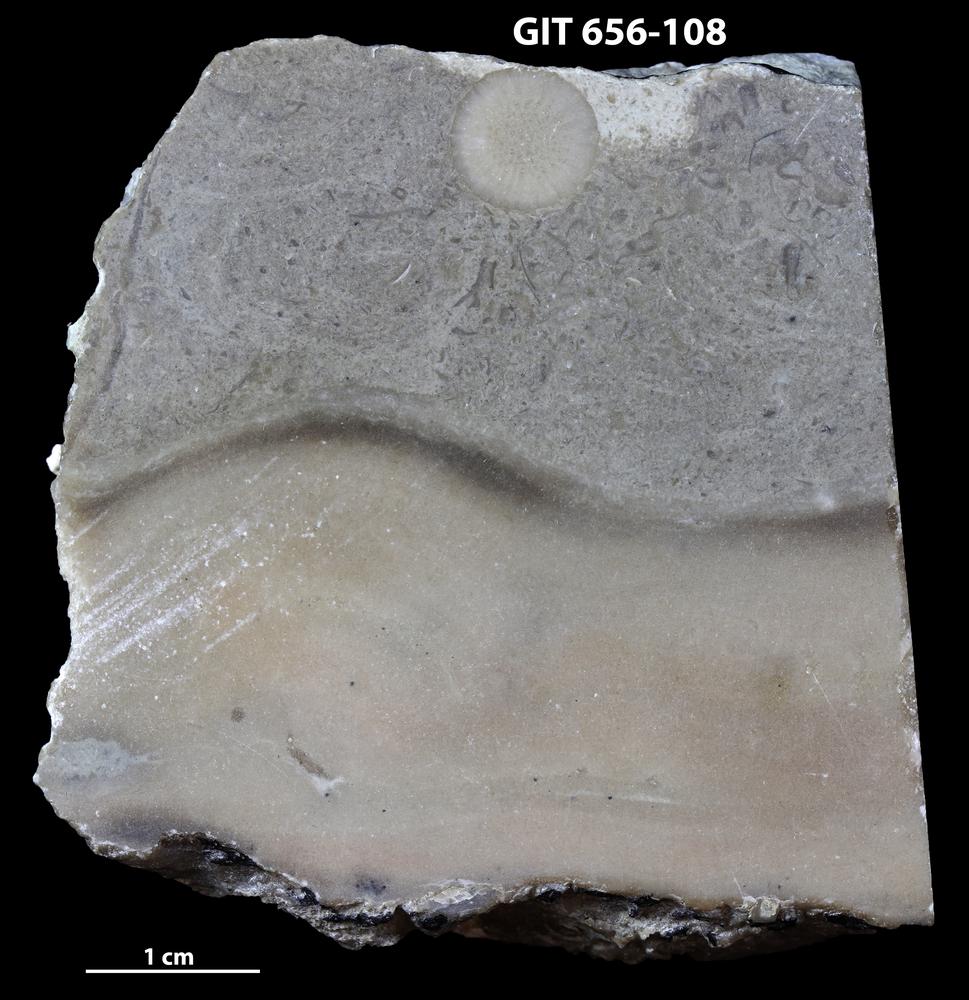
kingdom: Animalia
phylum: Porifera
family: Syringostromellidae
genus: Syringostromella
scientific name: Syringostromella
